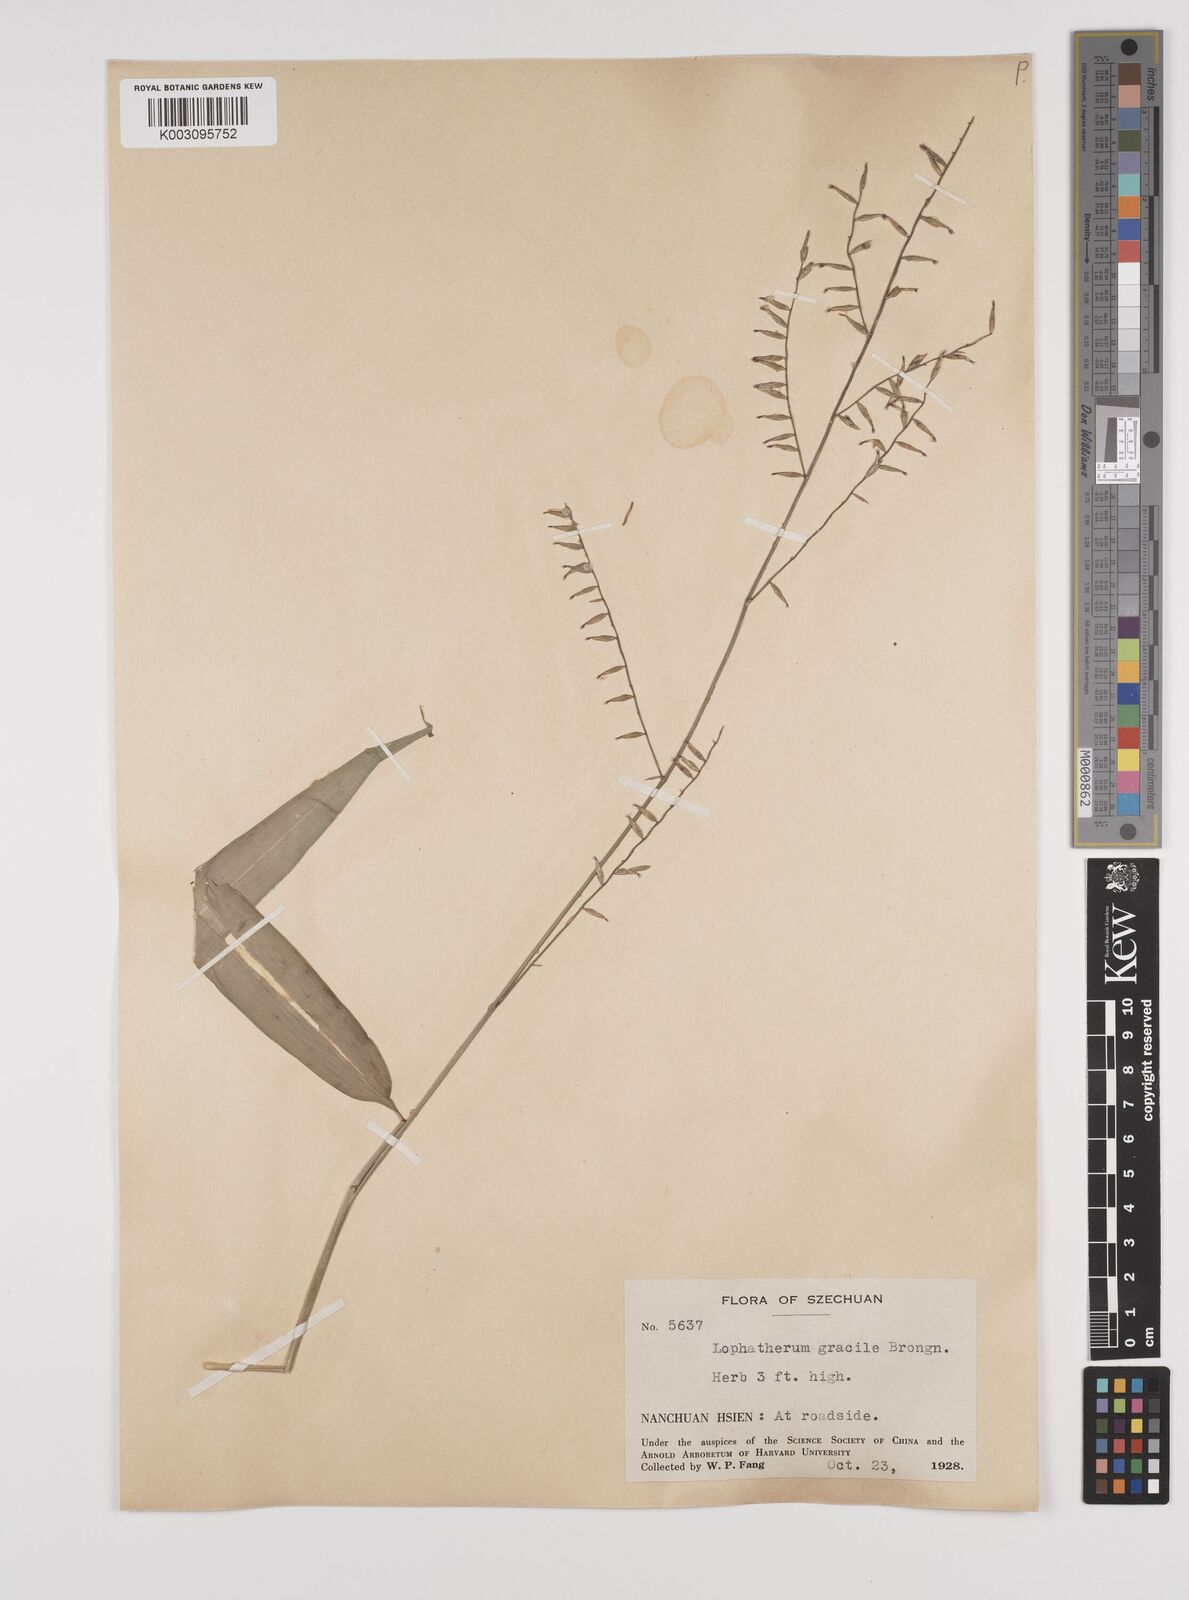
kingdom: Plantae
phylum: Tracheophyta
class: Liliopsida
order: Poales
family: Poaceae
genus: Lophatherum
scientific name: Lophatherum gracile
